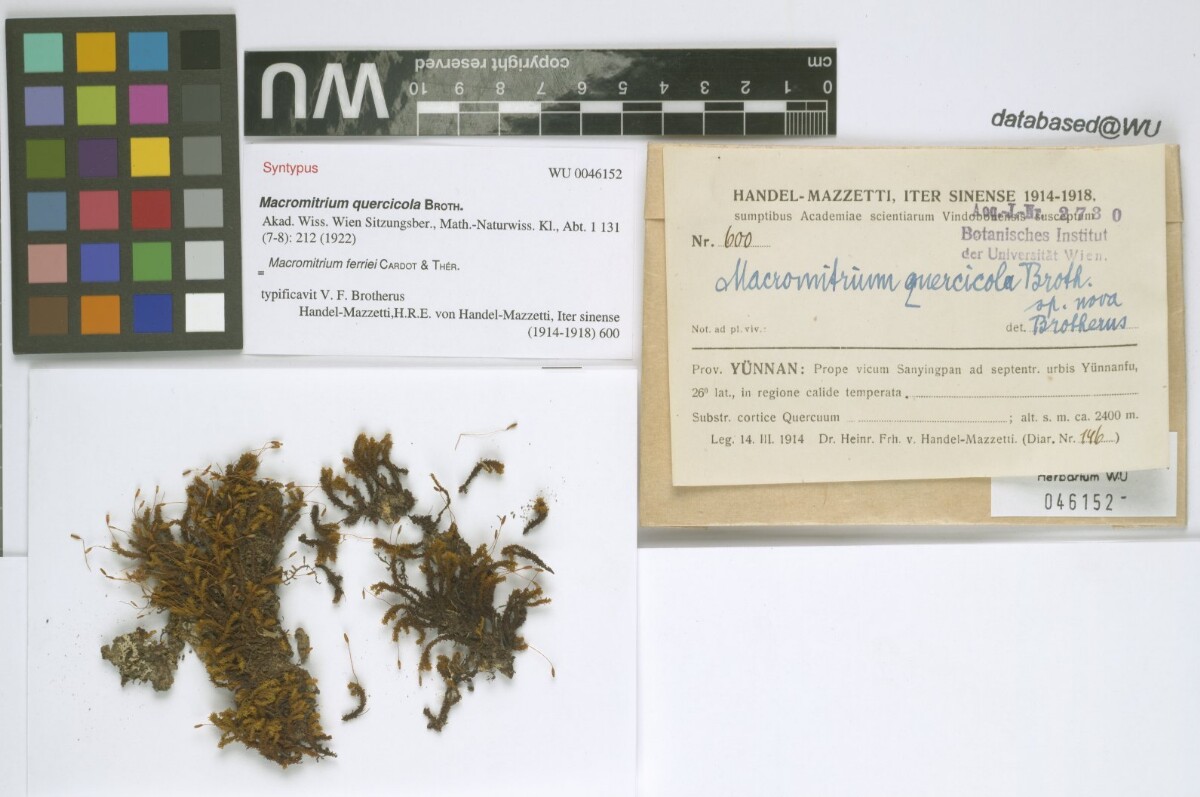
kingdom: Plantae
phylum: Bryophyta
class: Bryopsida
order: Orthotrichales
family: Orthotrichaceae
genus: Macromitrium
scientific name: Macromitrium ferriei
